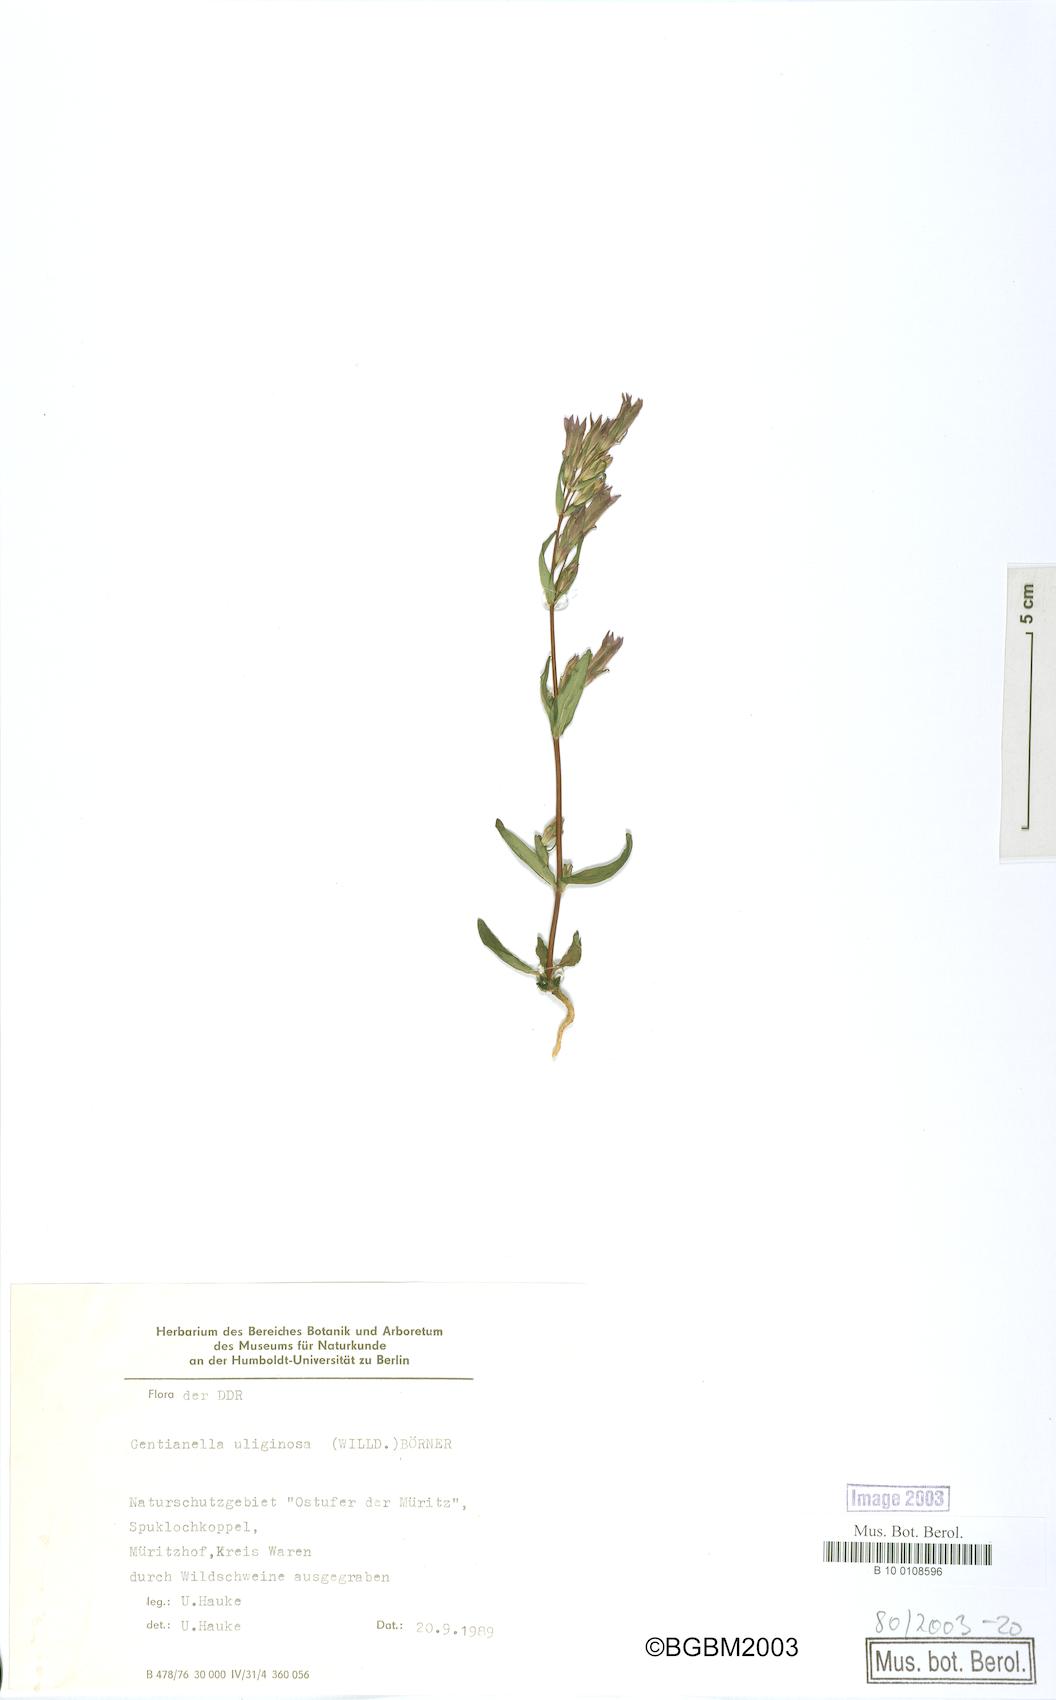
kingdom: Plantae
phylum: Tracheophyta
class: Magnoliopsida
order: Gentianales
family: Gentianaceae
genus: Gentianella
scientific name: Gentianella uliginosa
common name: Dune gentian
